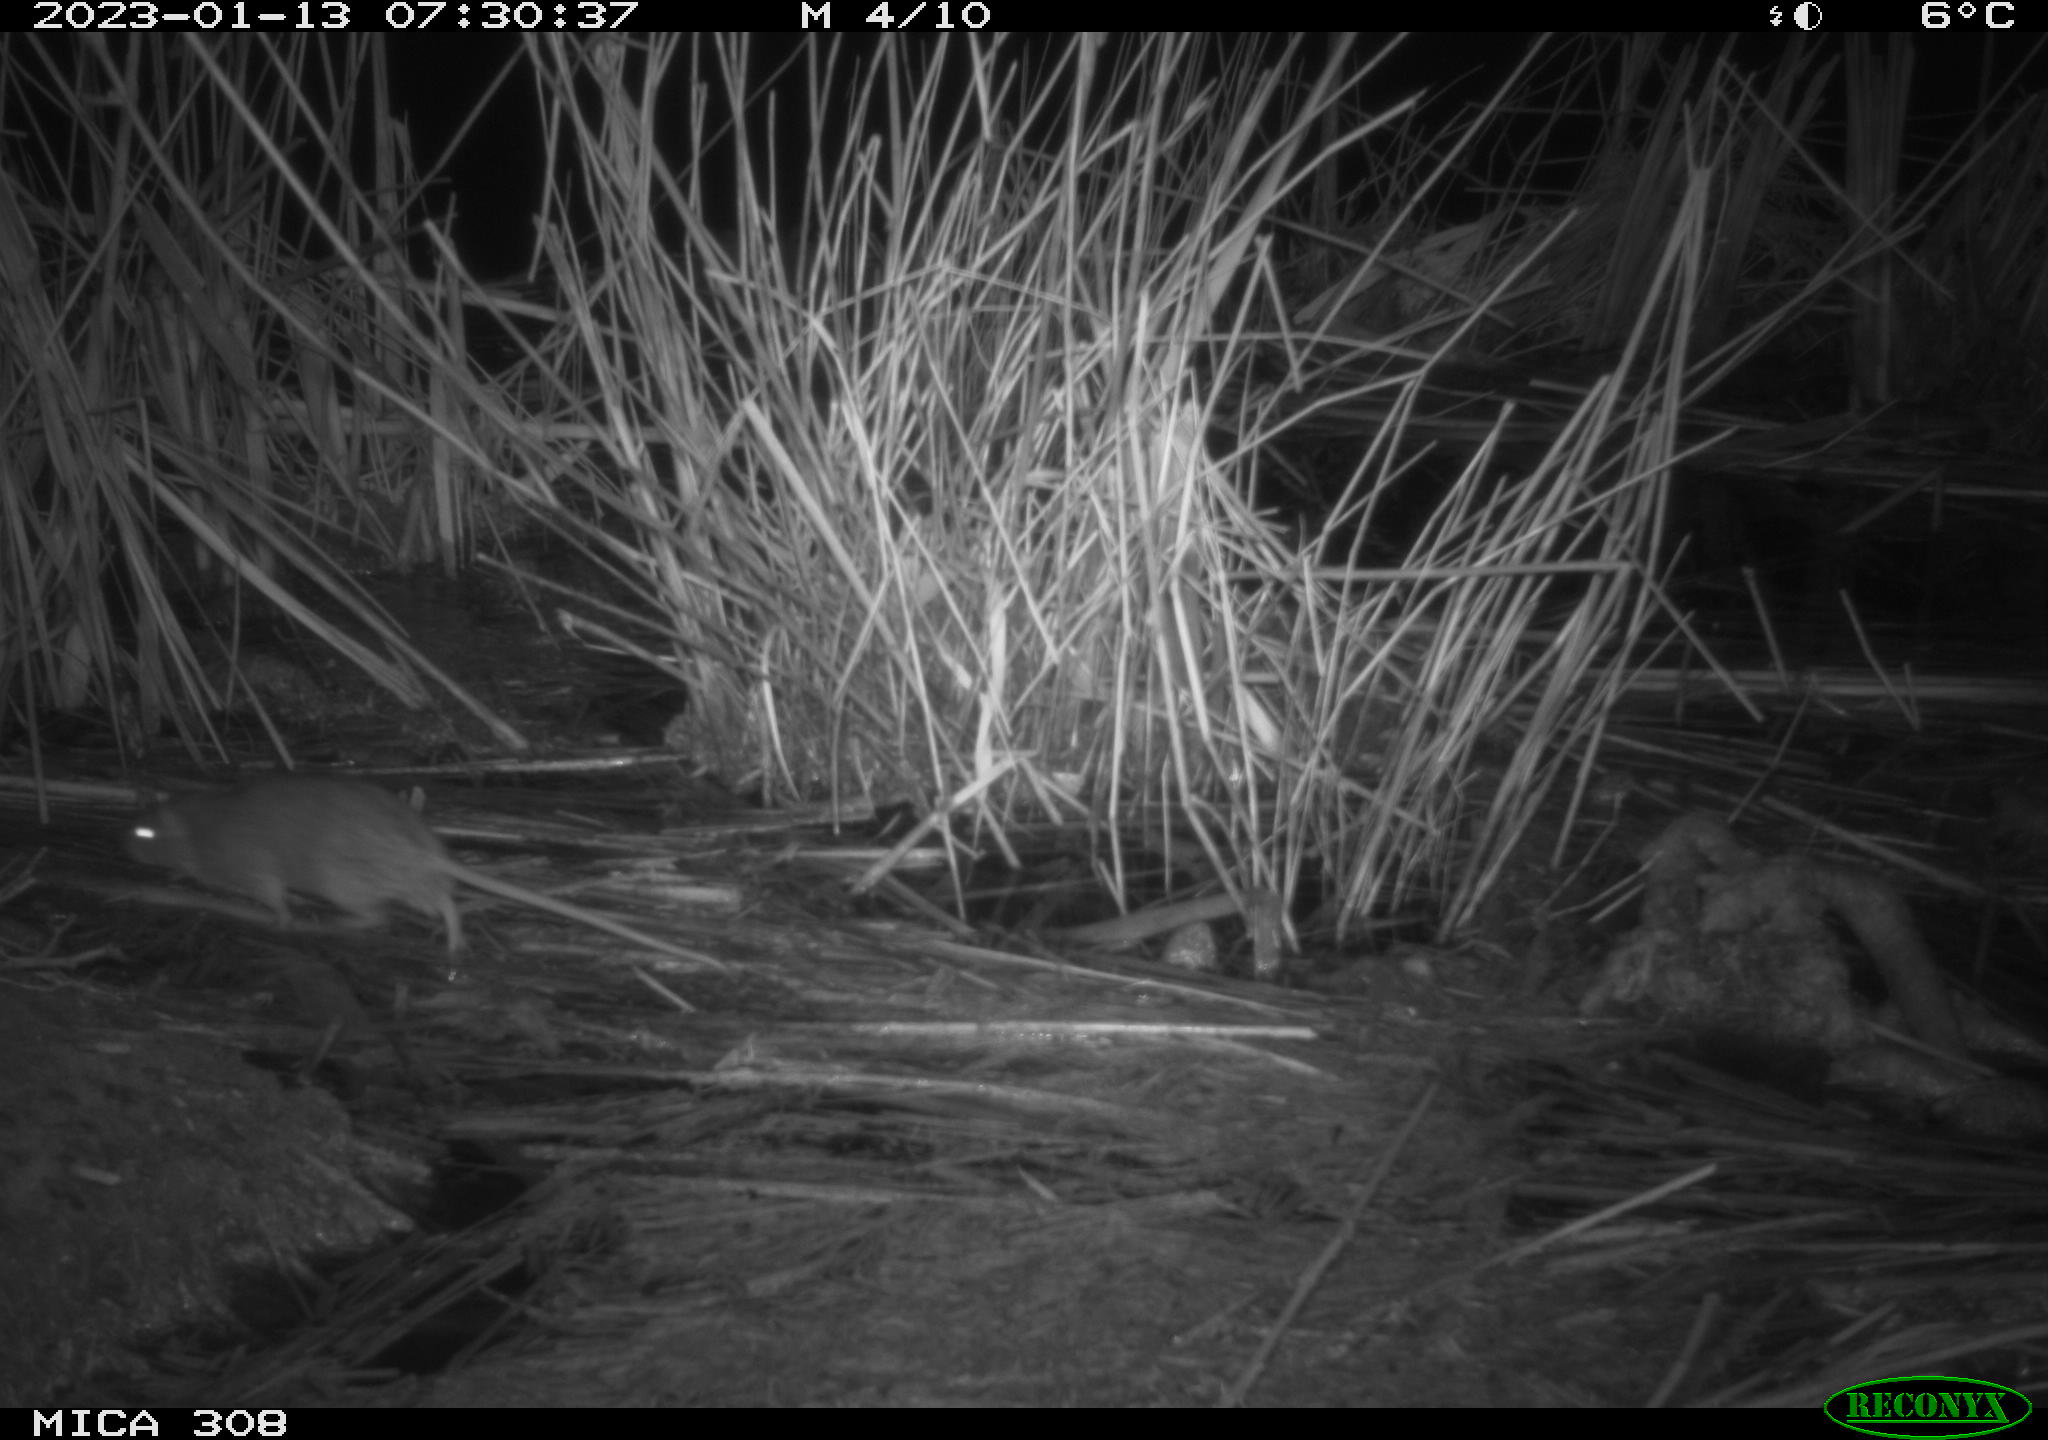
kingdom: Animalia
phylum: Chordata
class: Mammalia
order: Rodentia
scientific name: Rodentia
